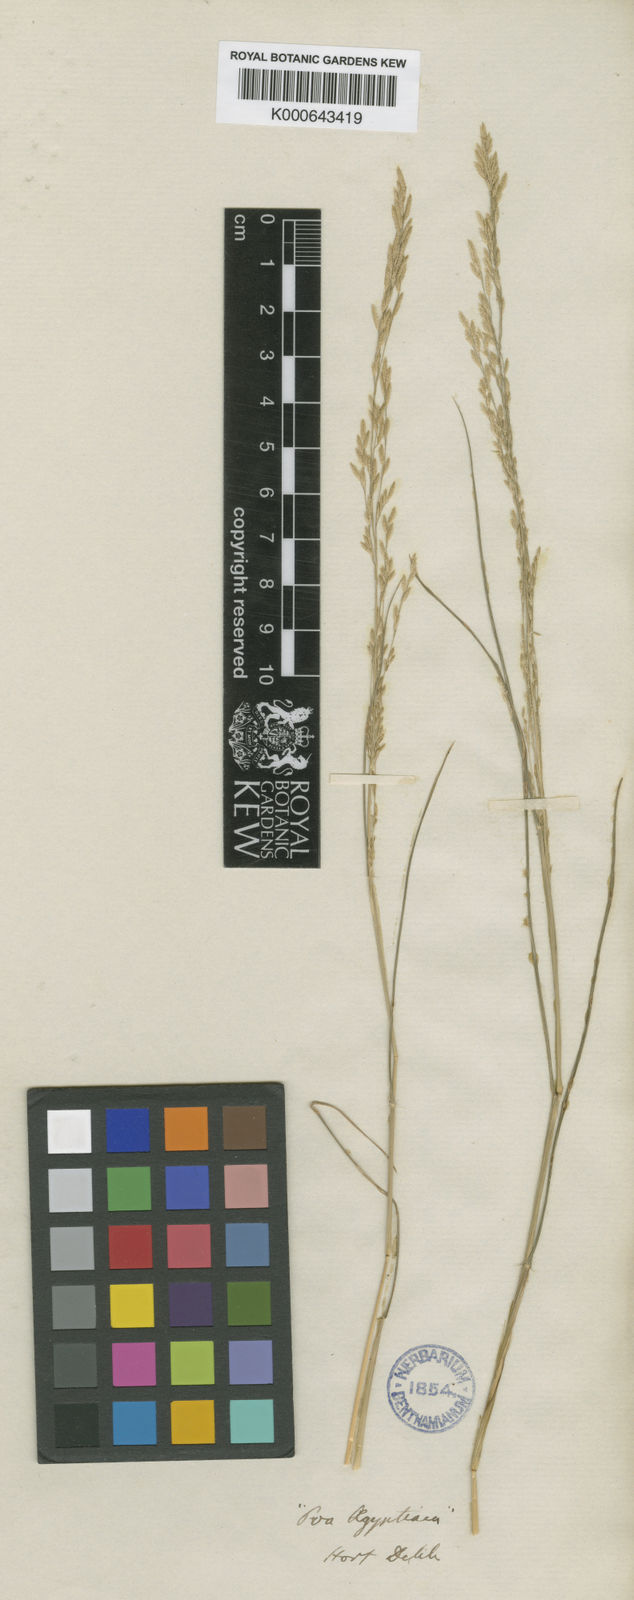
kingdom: Plantae
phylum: Tracheophyta
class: Liliopsida
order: Poales
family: Poaceae
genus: Eragrostis
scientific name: Eragrostis aegyptiaca
